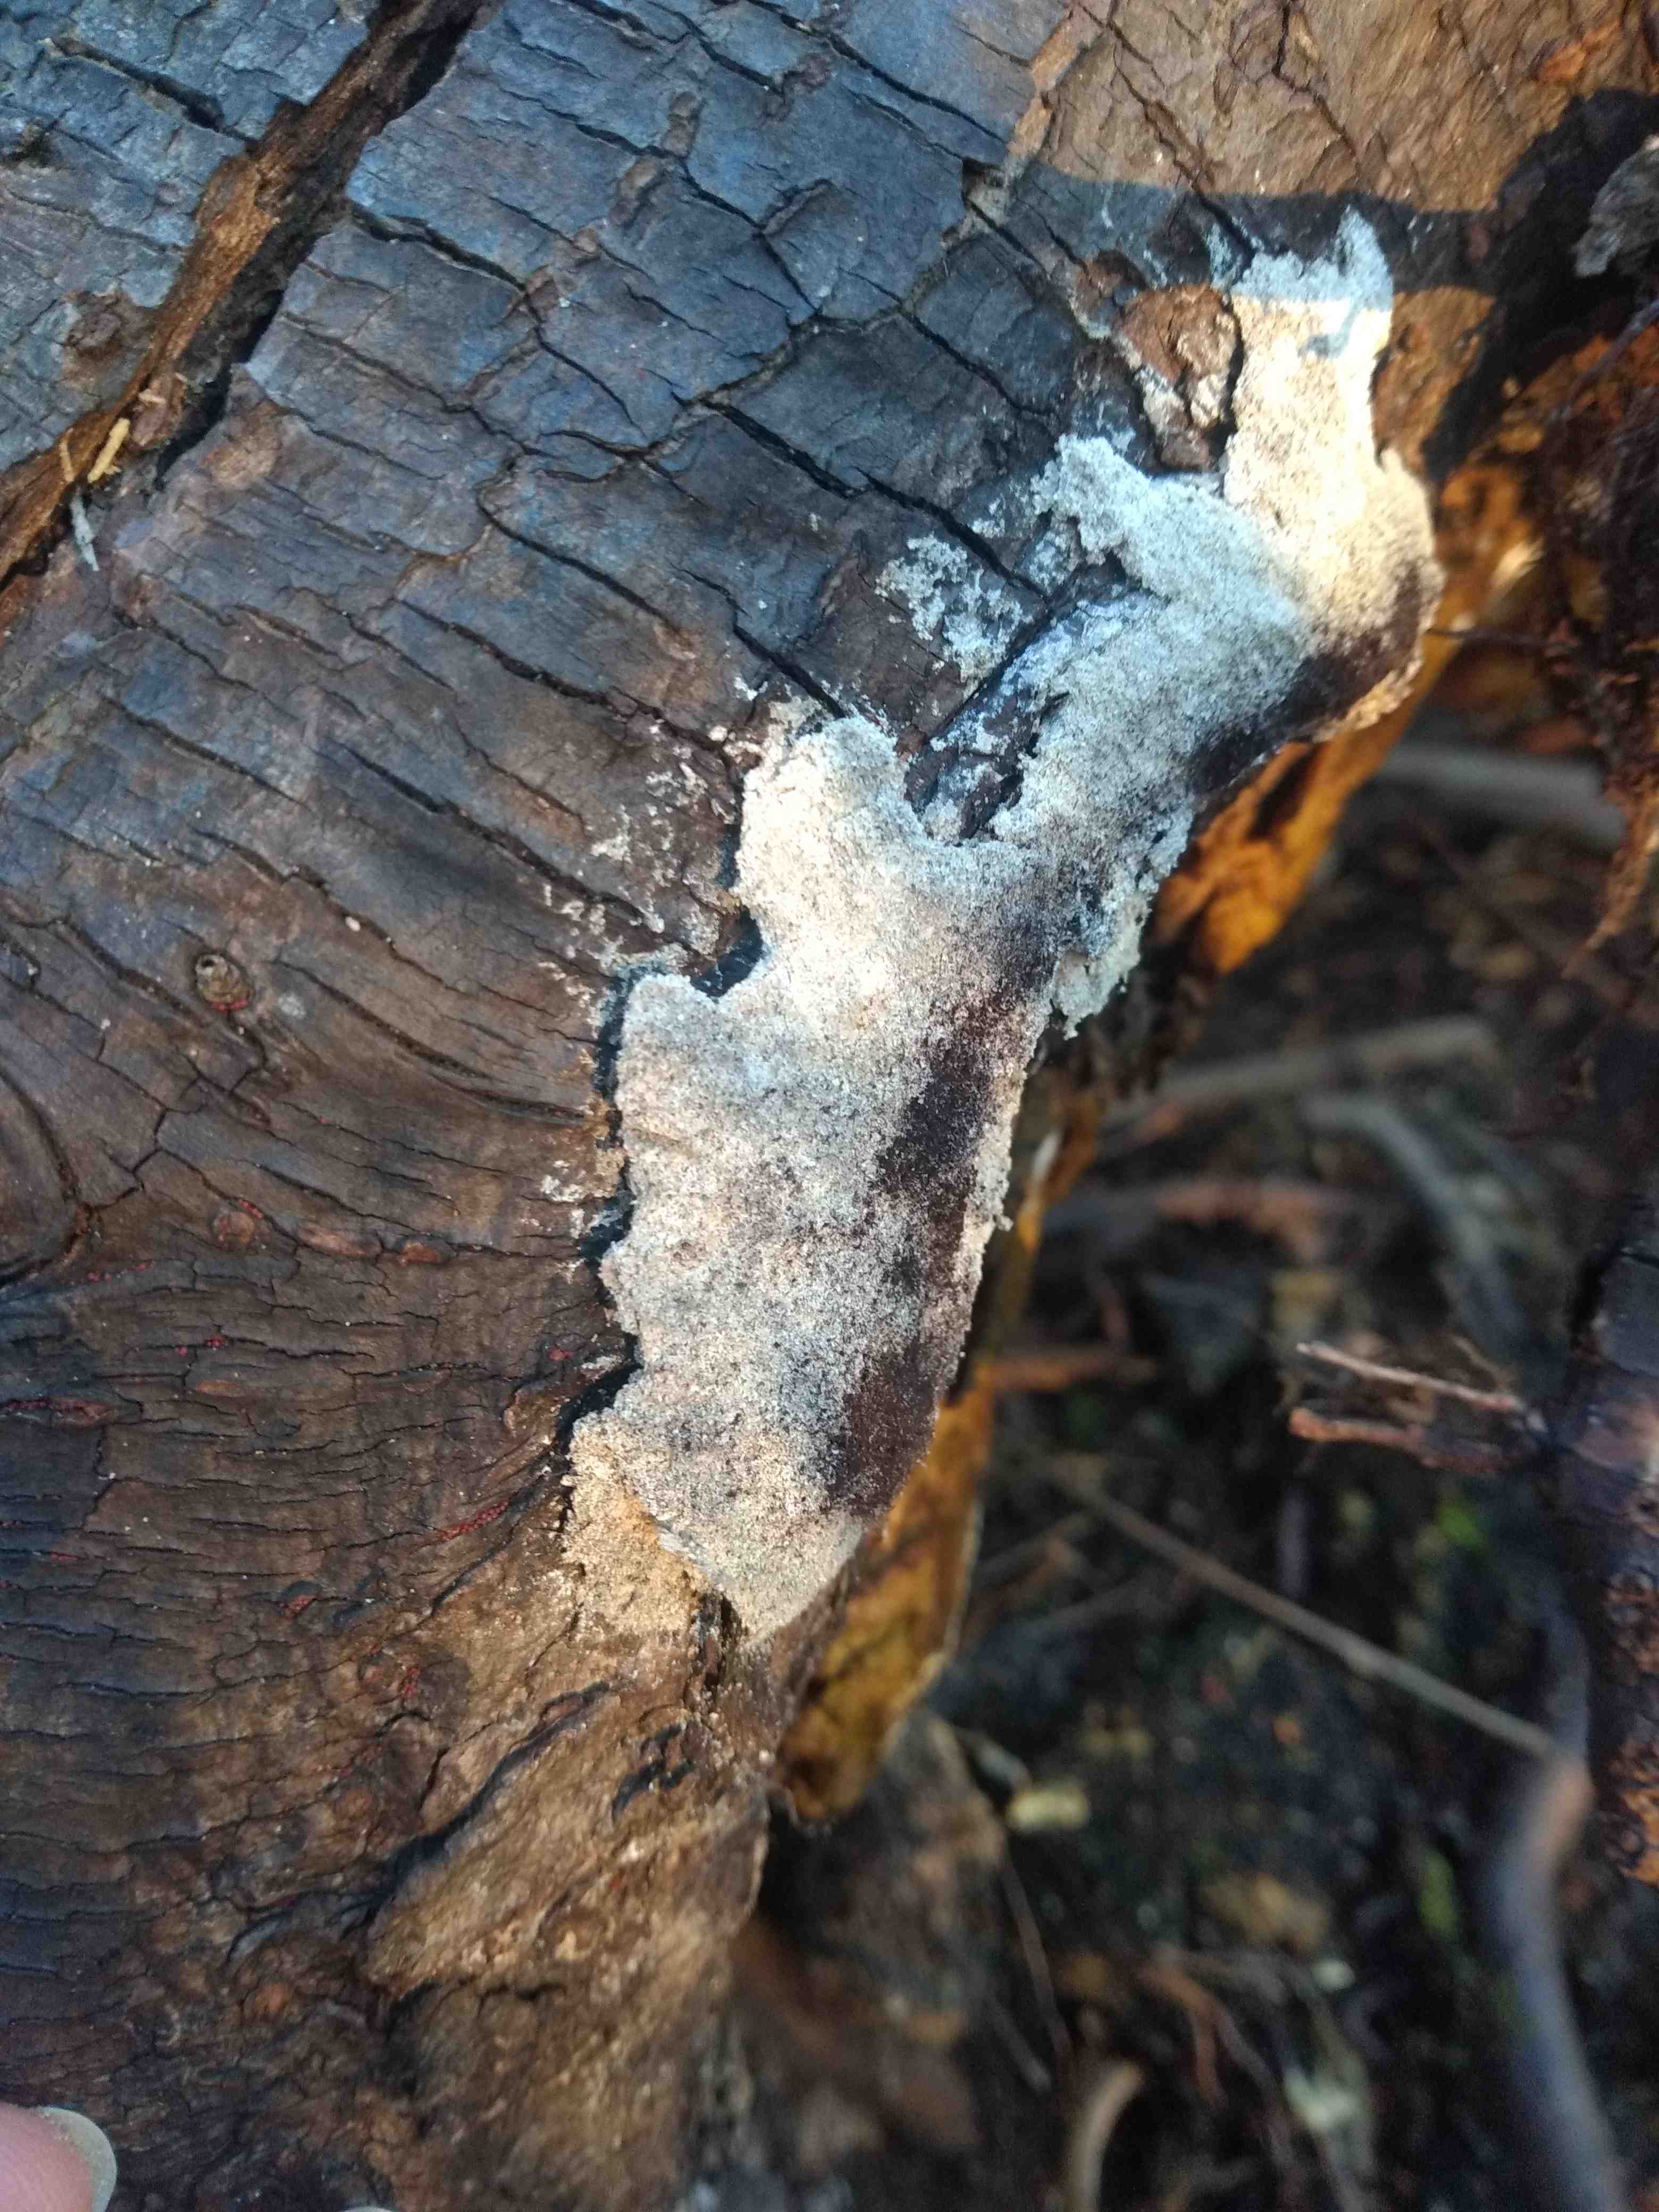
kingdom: Protozoa
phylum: Mycetozoa
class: Myxomycetes
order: Physarales
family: Physaraceae
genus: Fuligo
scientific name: Fuligo septica
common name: Dog vomit slime mold
